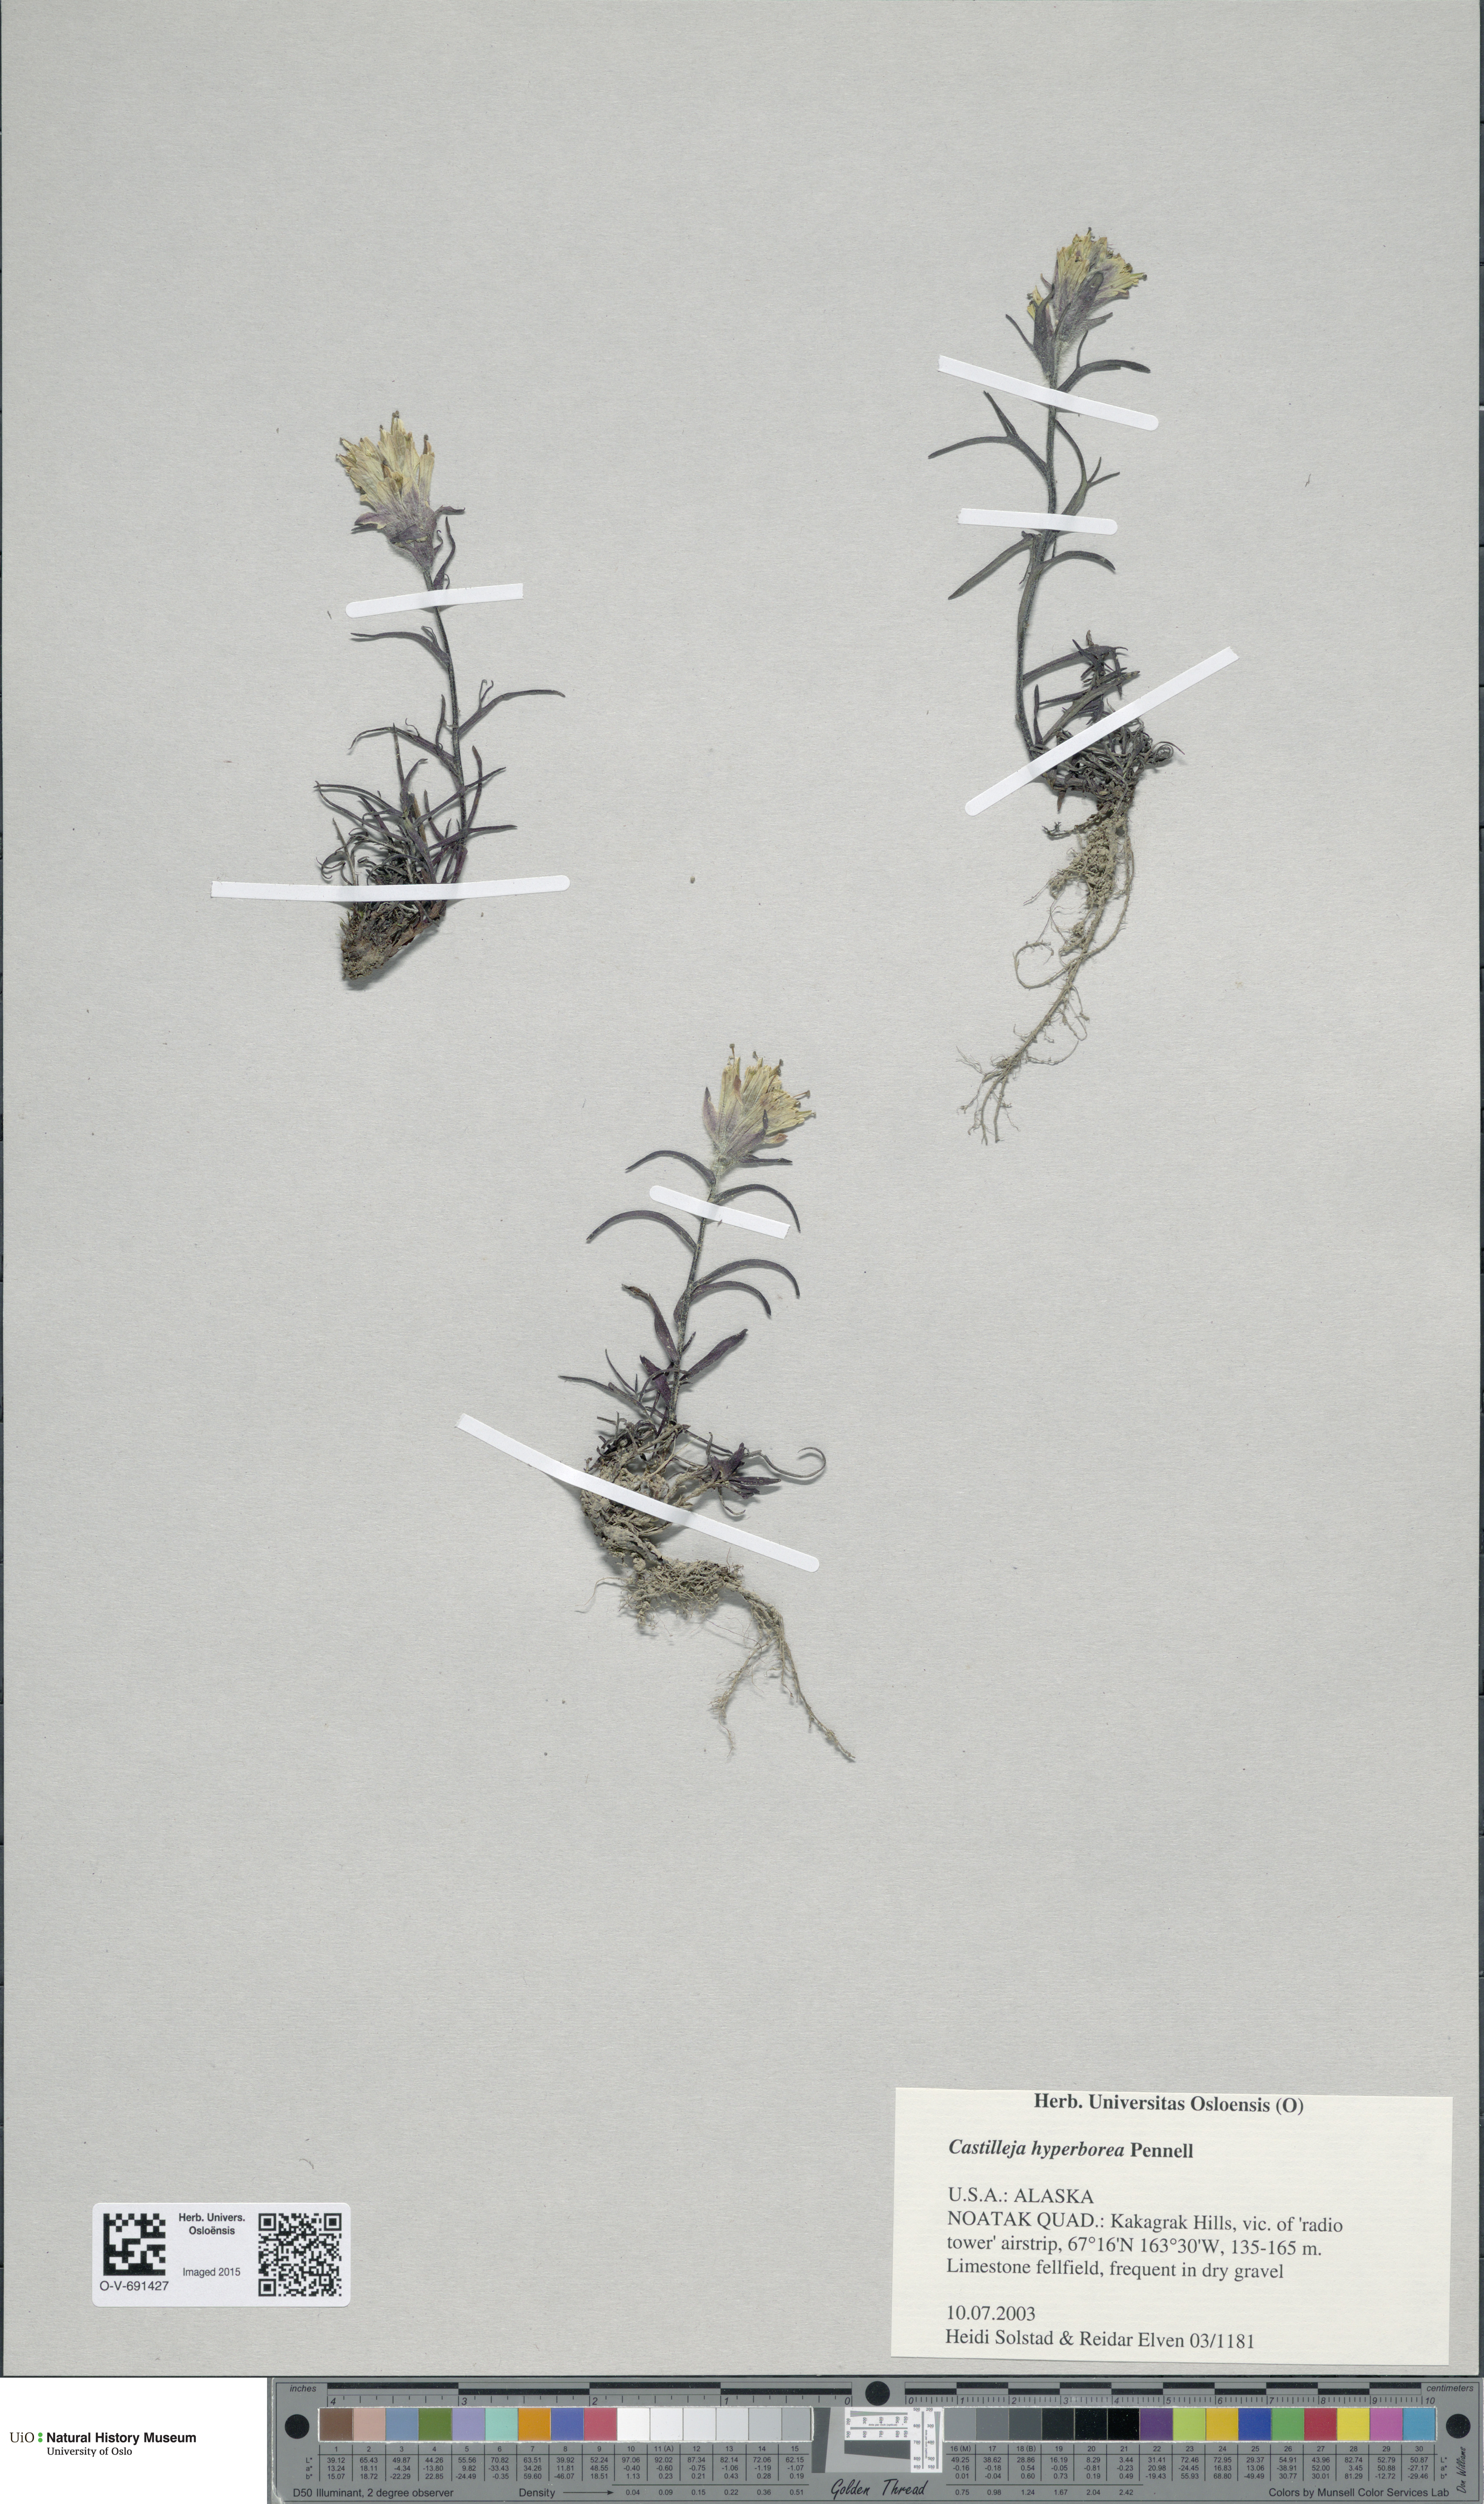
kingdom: Plantae
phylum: Tracheophyta
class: Magnoliopsida
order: Lamiales
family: Orobanchaceae
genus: Castilleja
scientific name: Castilleja hyperborea
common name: Northern paintbrush
